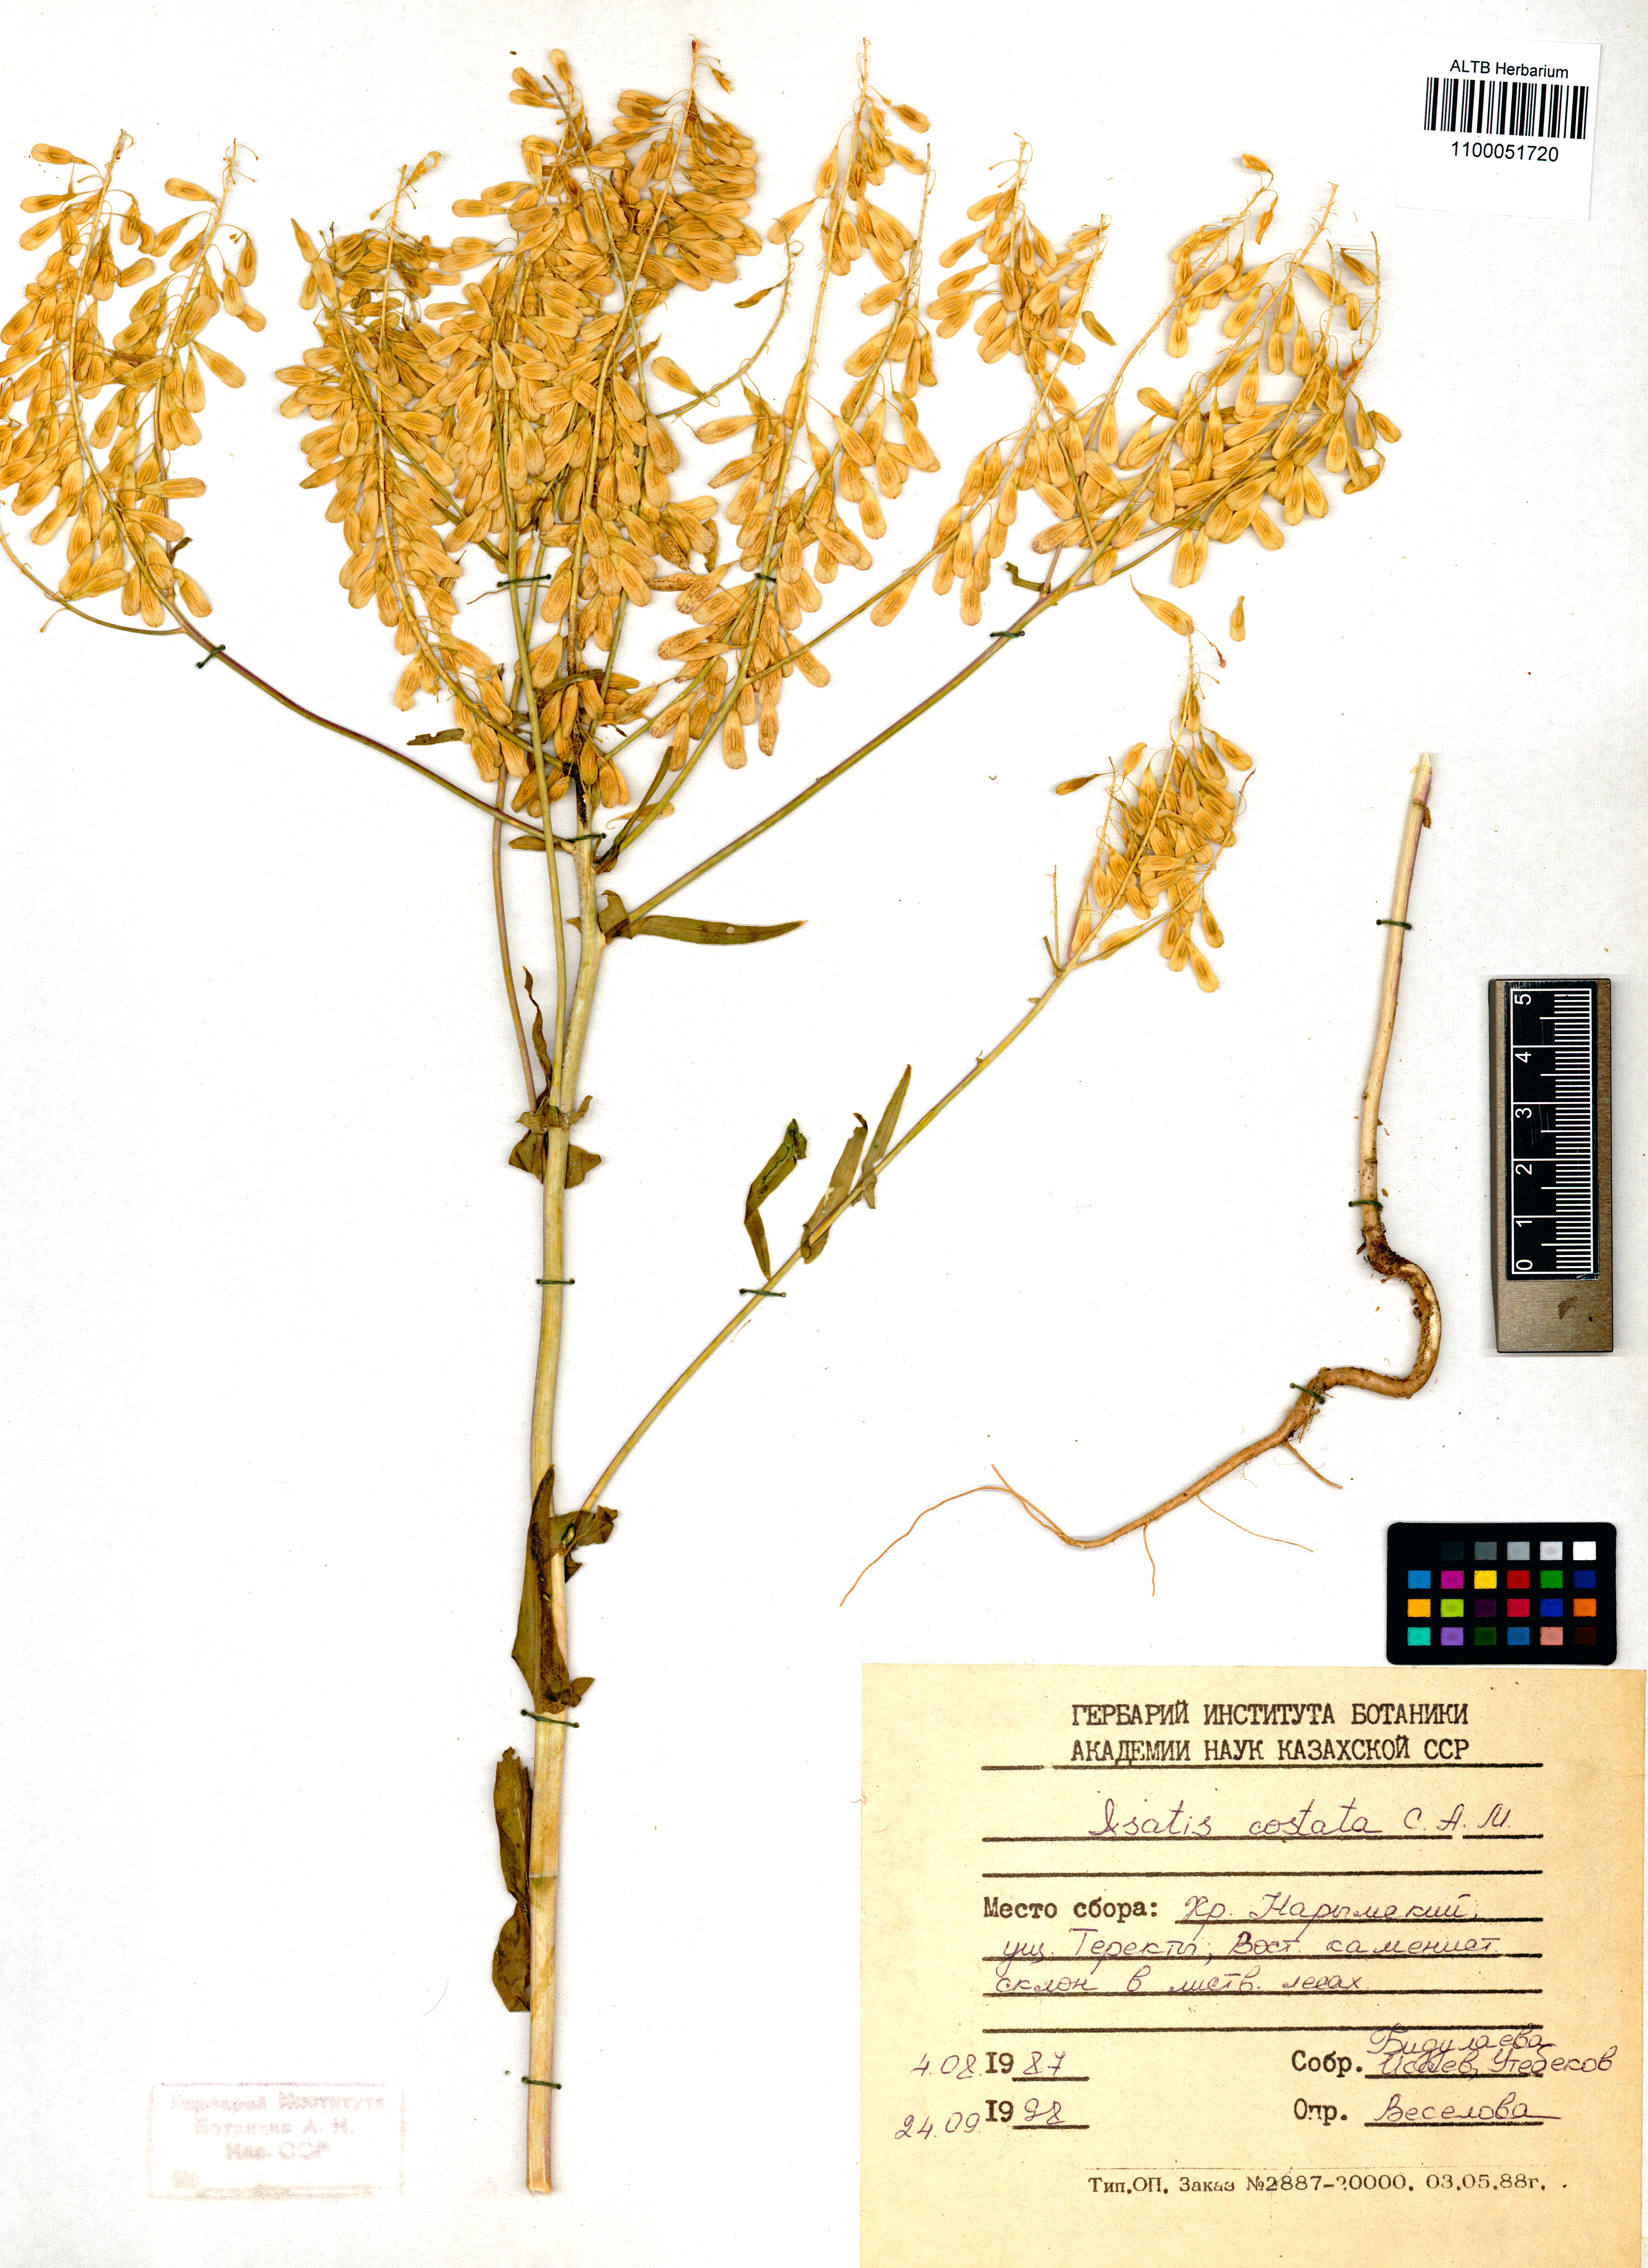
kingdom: Plantae
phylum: Tracheophyta
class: Magnoliopsida
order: Brassicales
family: Brassicaceae
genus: Isatis
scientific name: Isatis costata
